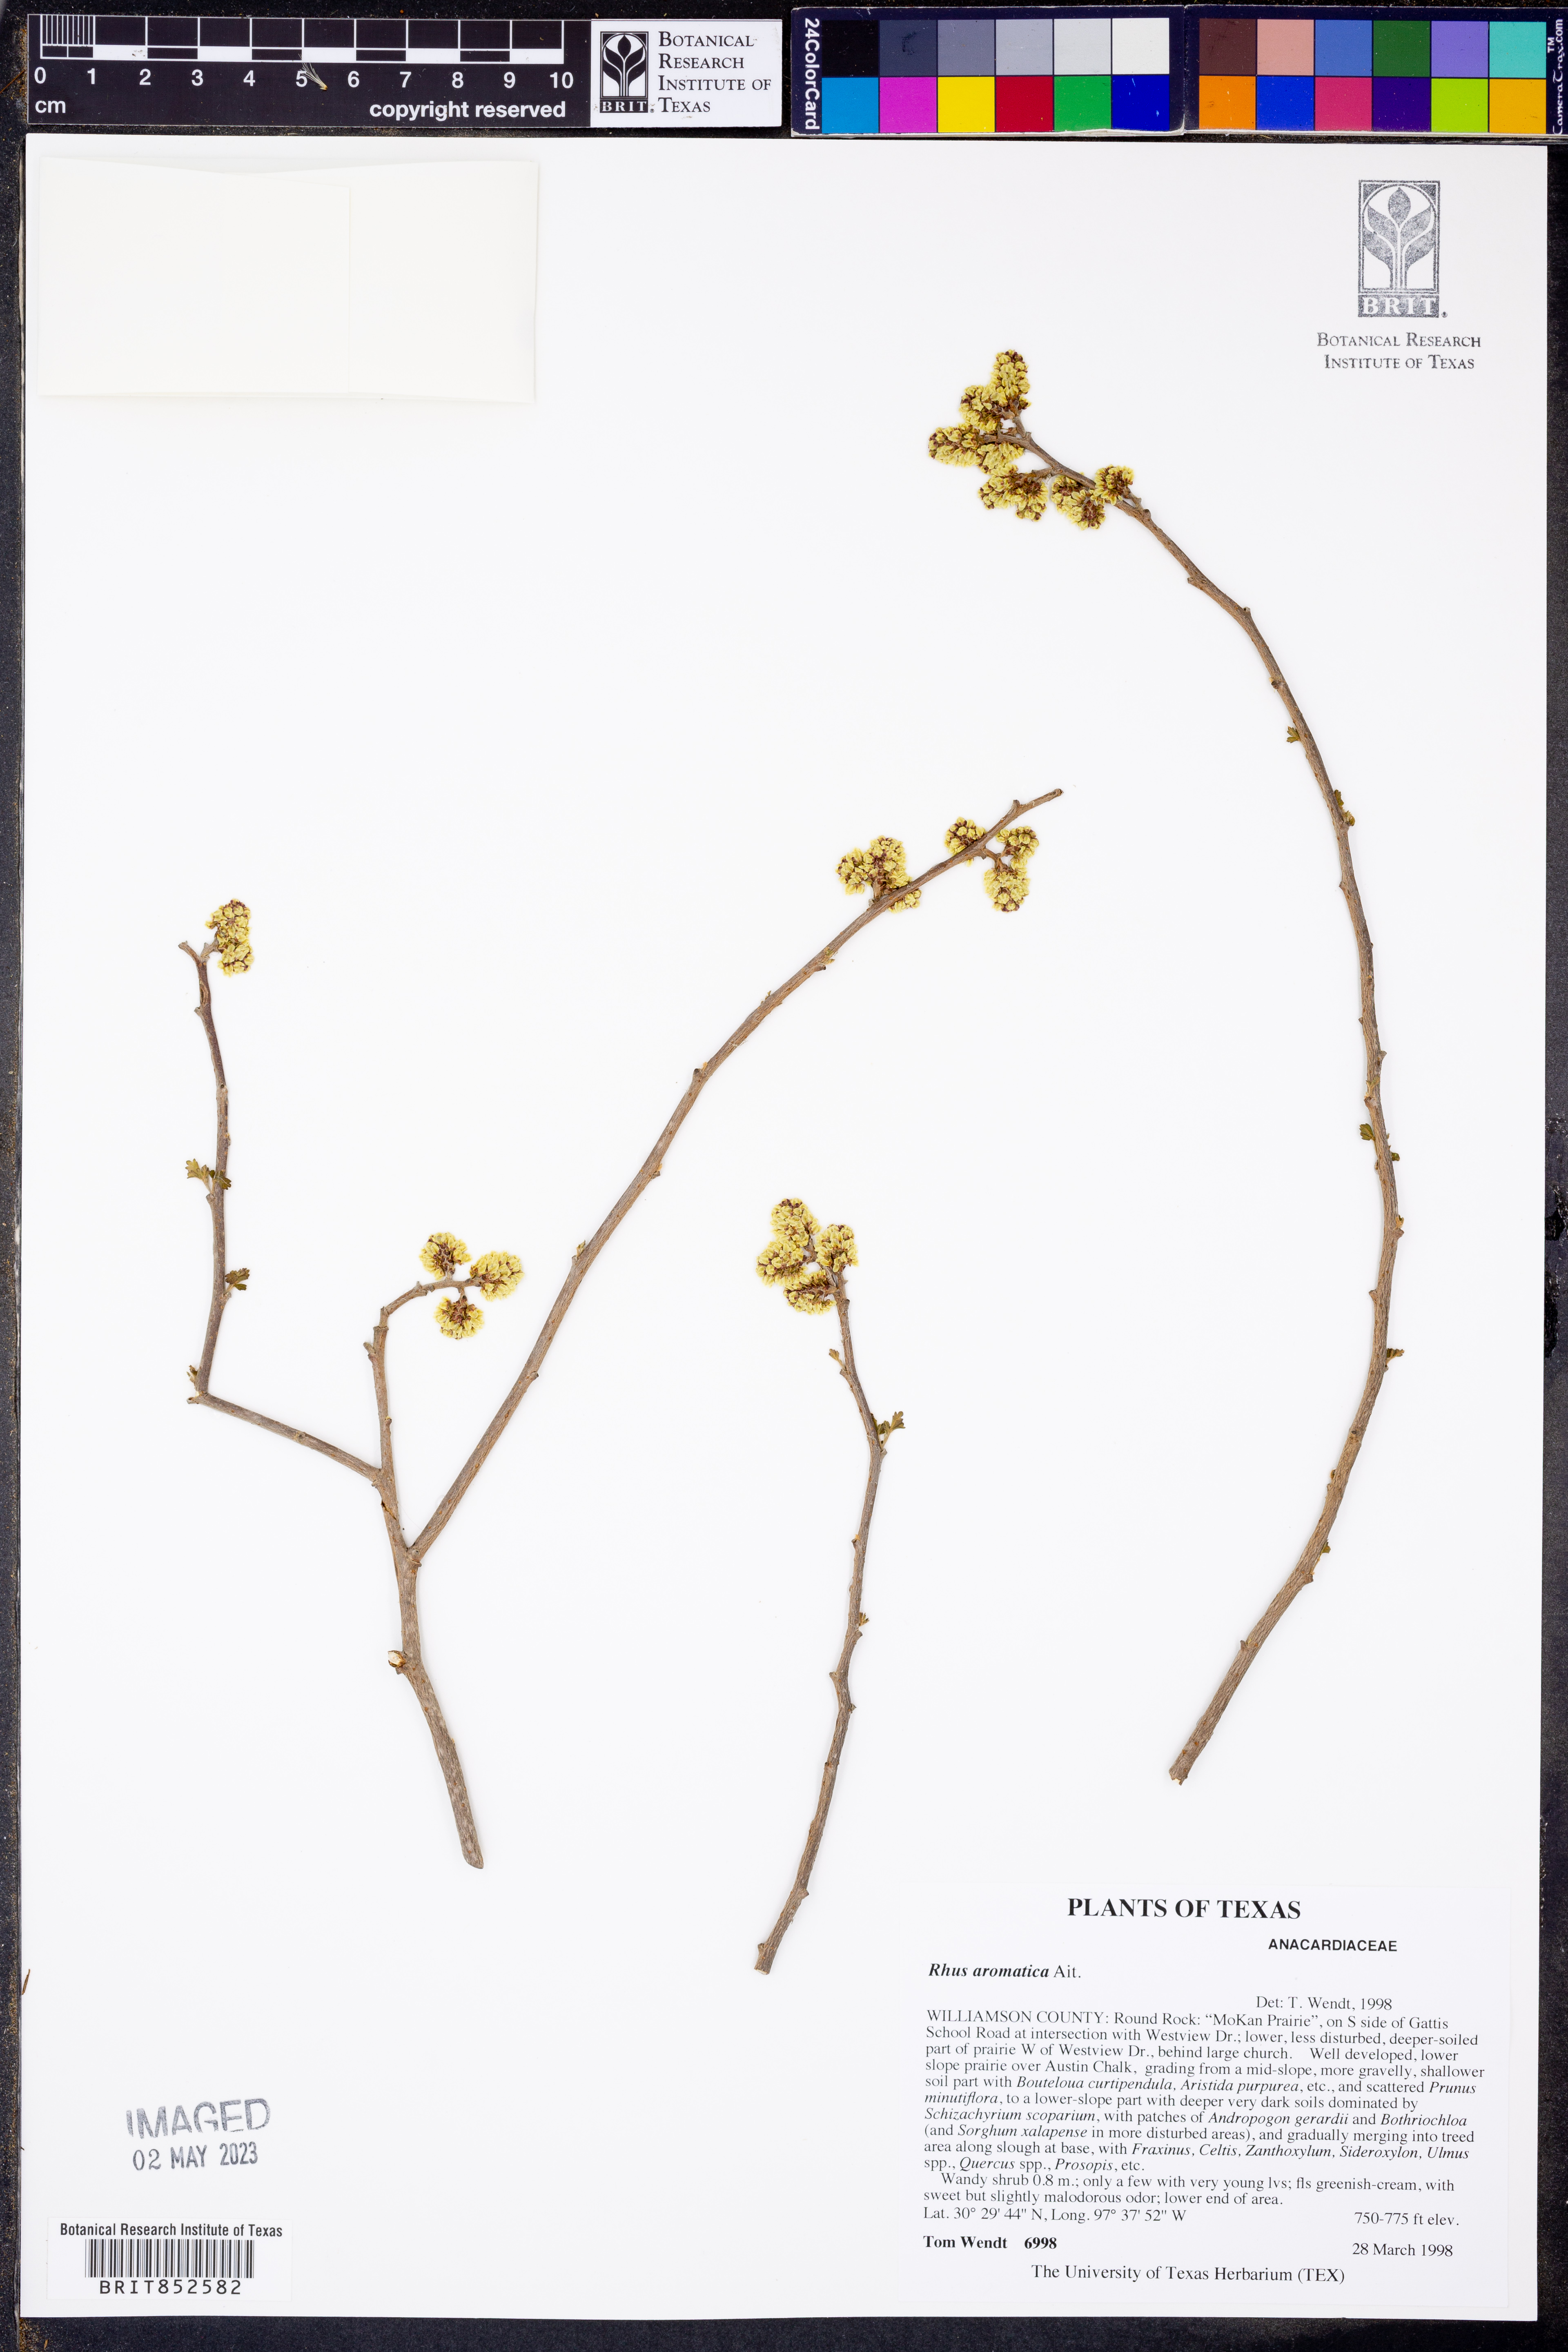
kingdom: Plantae
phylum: Tracheophyta
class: Magnoliopsida
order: Sapindales
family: Anacardiaceae
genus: Rhus
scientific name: Rhus aromatica
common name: Aromatic sumac
